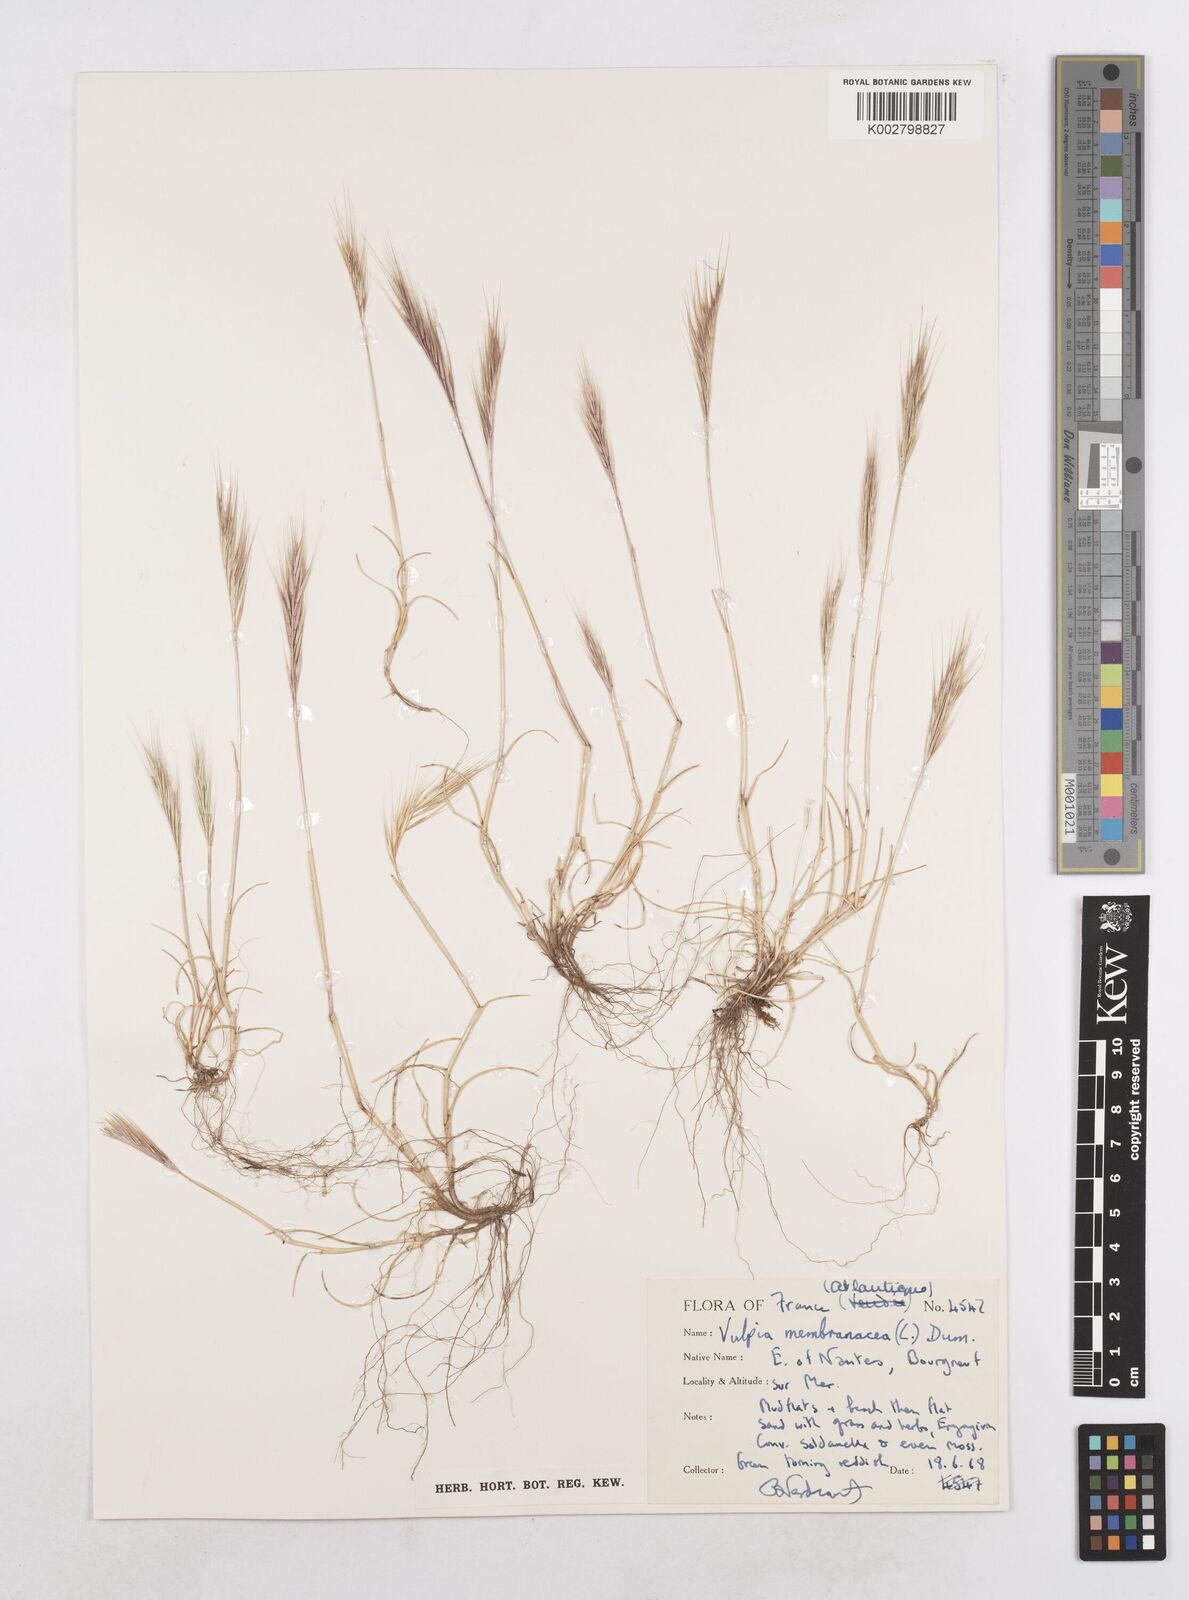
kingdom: Plantae
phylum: Tracheophyta
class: Liliopsida
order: Poales
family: Poaceae
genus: Festuca
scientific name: Festuca membranacea
